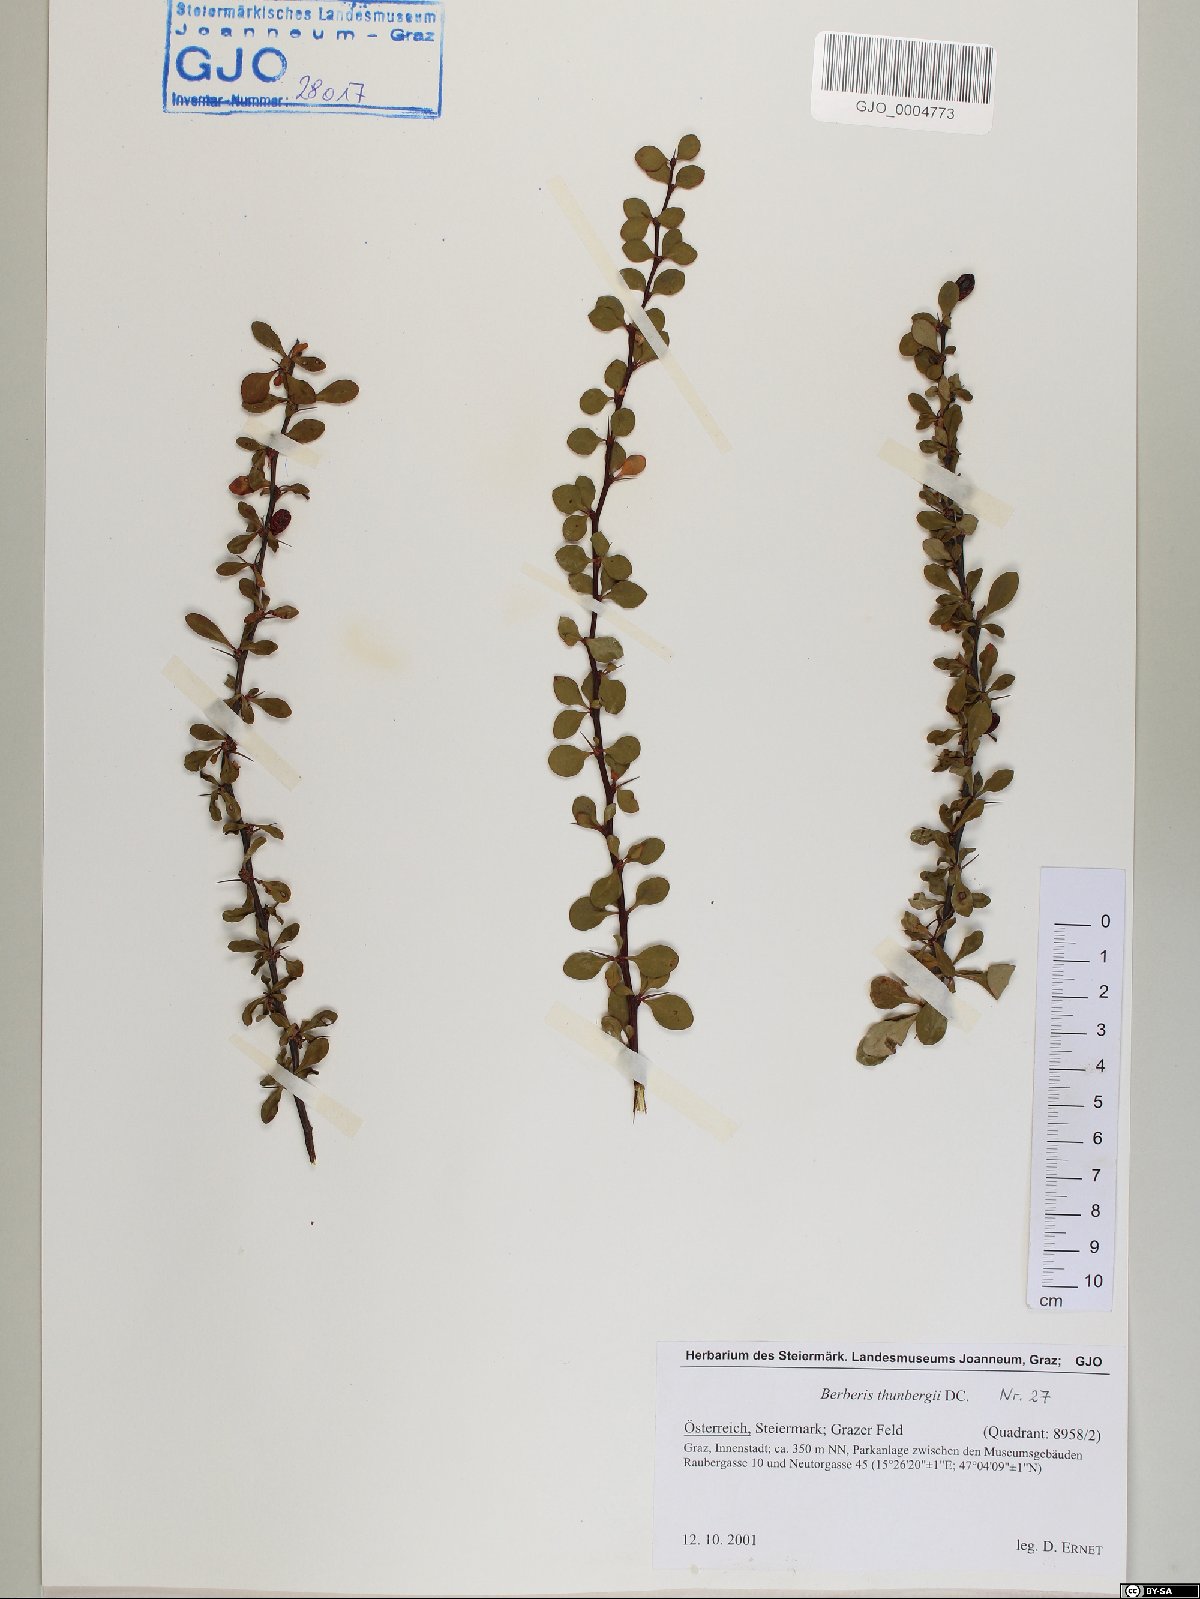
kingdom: Plantae
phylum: Tracheophyta
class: Magnoliopsida
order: Ranunculales
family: Berberidaceae
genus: Berberis
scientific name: Berberis thunbergii
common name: Japanese barberry
